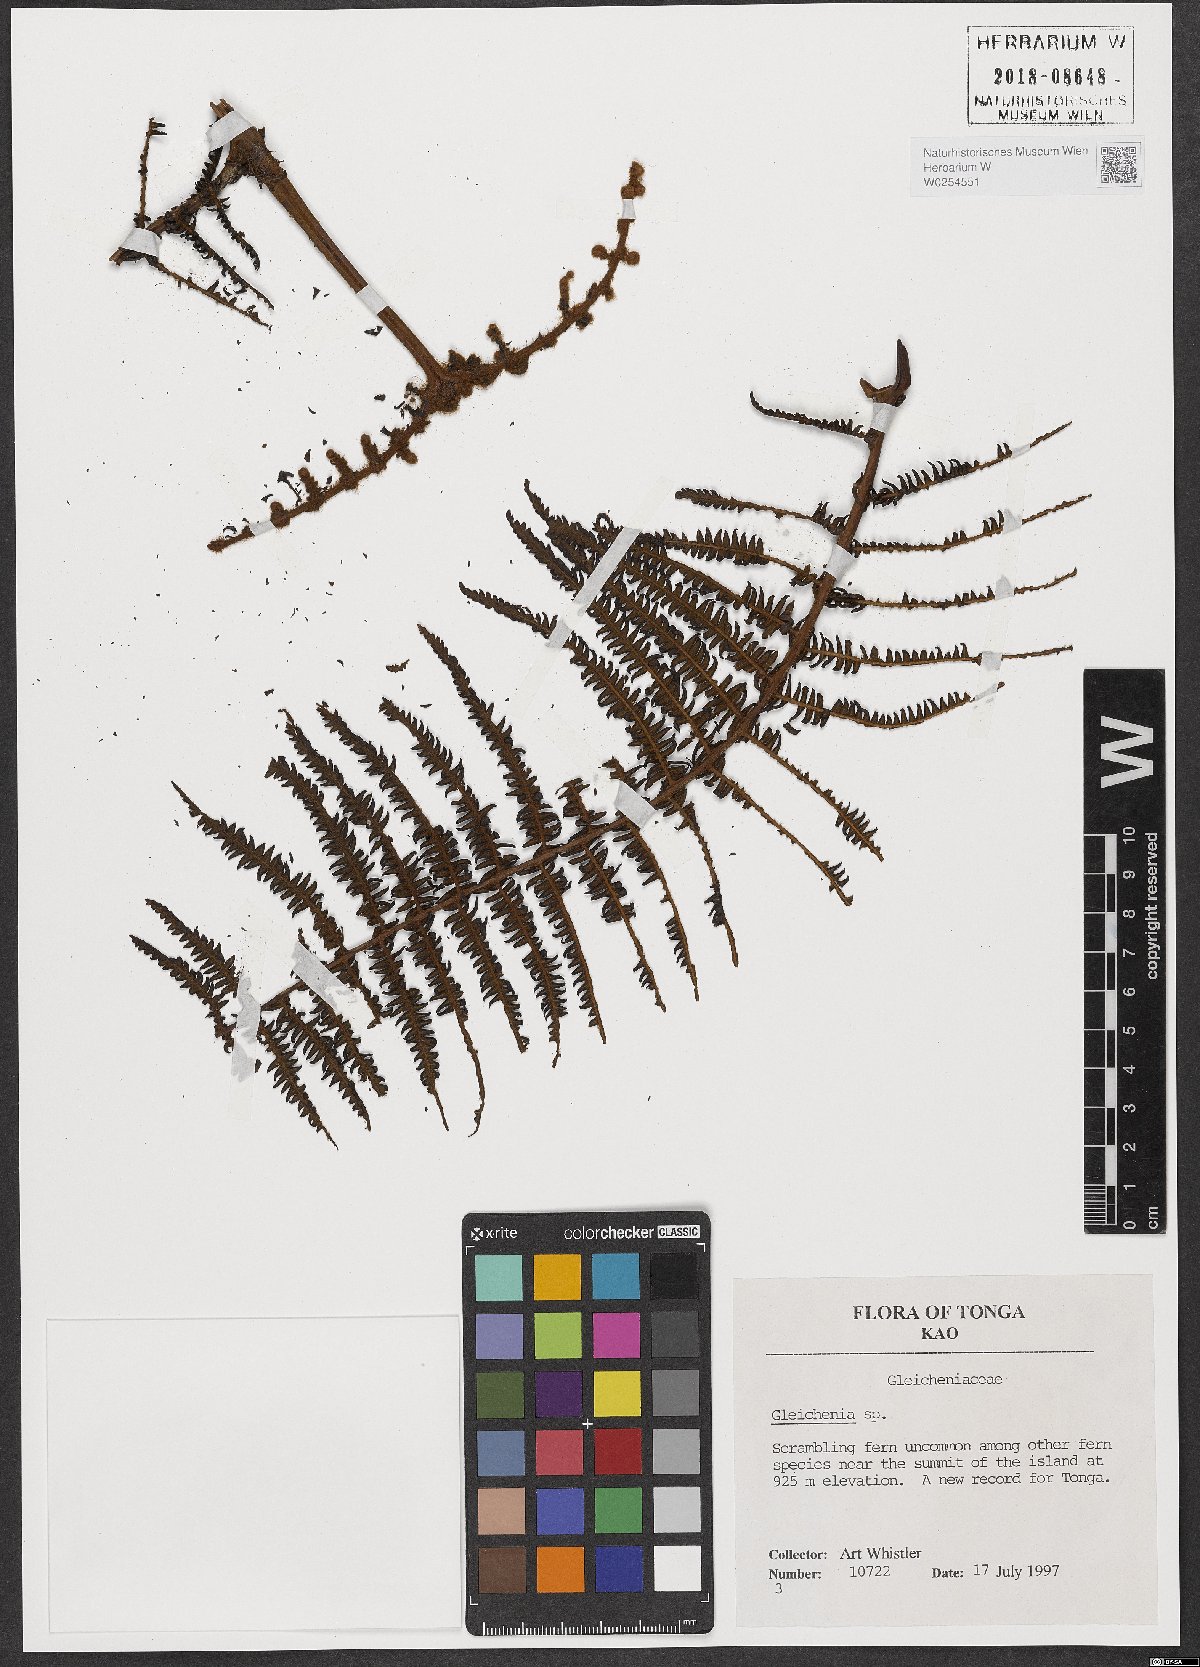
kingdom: Plantae
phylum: Tracheophyta
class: Polypodiopsida
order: Gleicheniales
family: Gleicheniaceae
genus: Gleichenia
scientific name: Gleichenia
